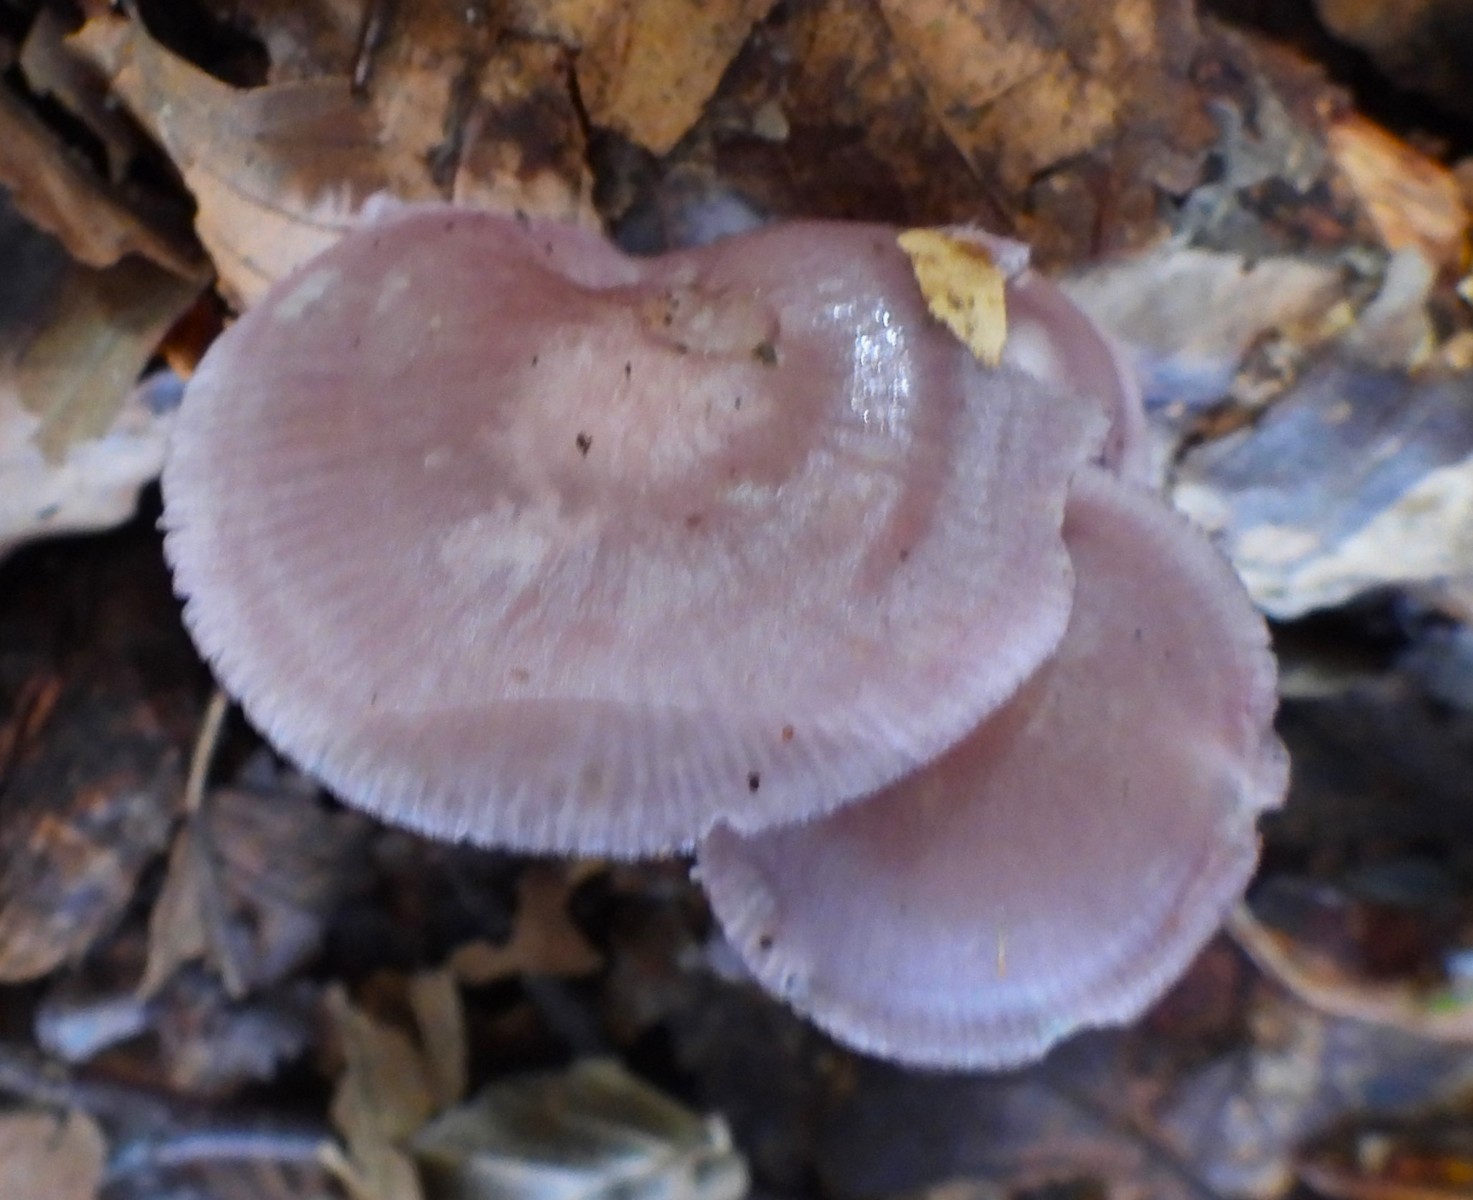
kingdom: Fungi
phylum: Basidiomycota
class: Agaricomycetes
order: Agaricales
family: Mycenaceae
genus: Mycena
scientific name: Mycena pelianthina
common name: mørkbladet huesvamp
